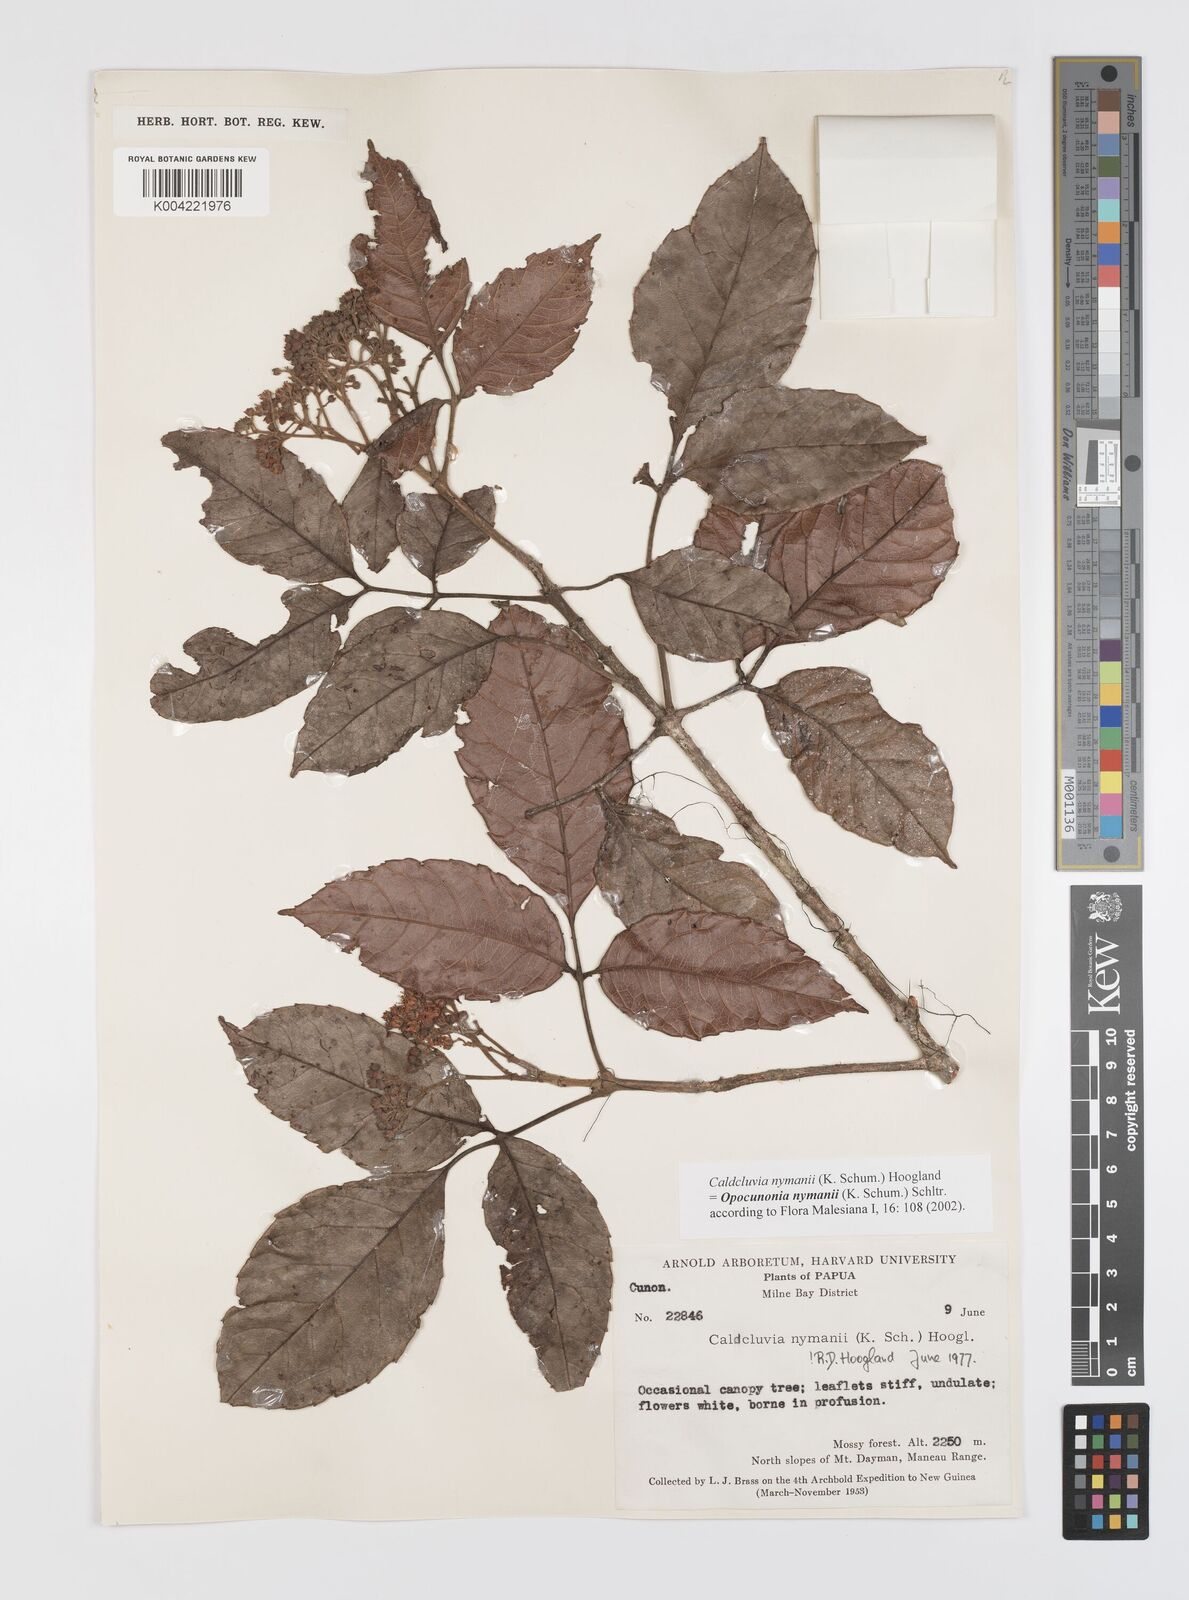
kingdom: Plantae
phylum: Tracheophyta
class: Magnoliopsida
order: Oxalidales
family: Cunoniaceae
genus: Opocunonia
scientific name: Opocunonia nymanii
